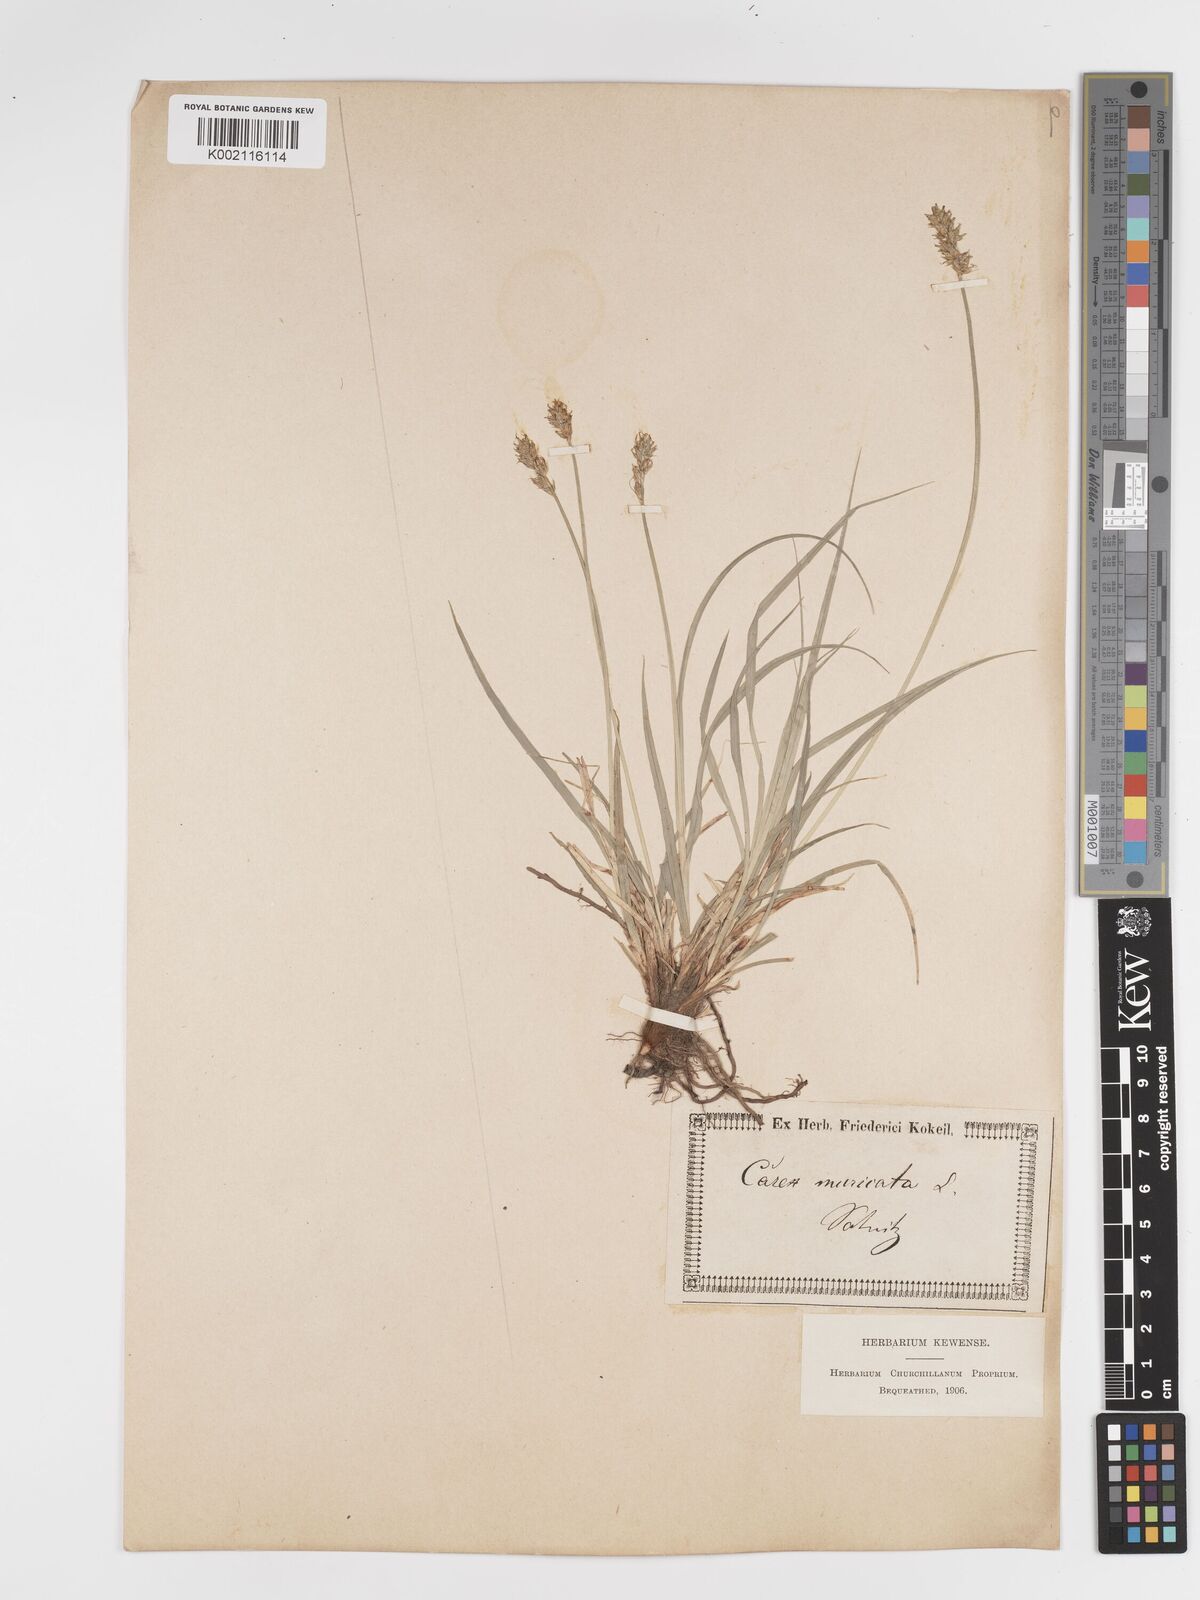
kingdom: Plantae
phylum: Tracheophyta
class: Liliopsida
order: Poales
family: Cyperaceae
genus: Carex
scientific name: Carex spicata
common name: Spiked sedge
